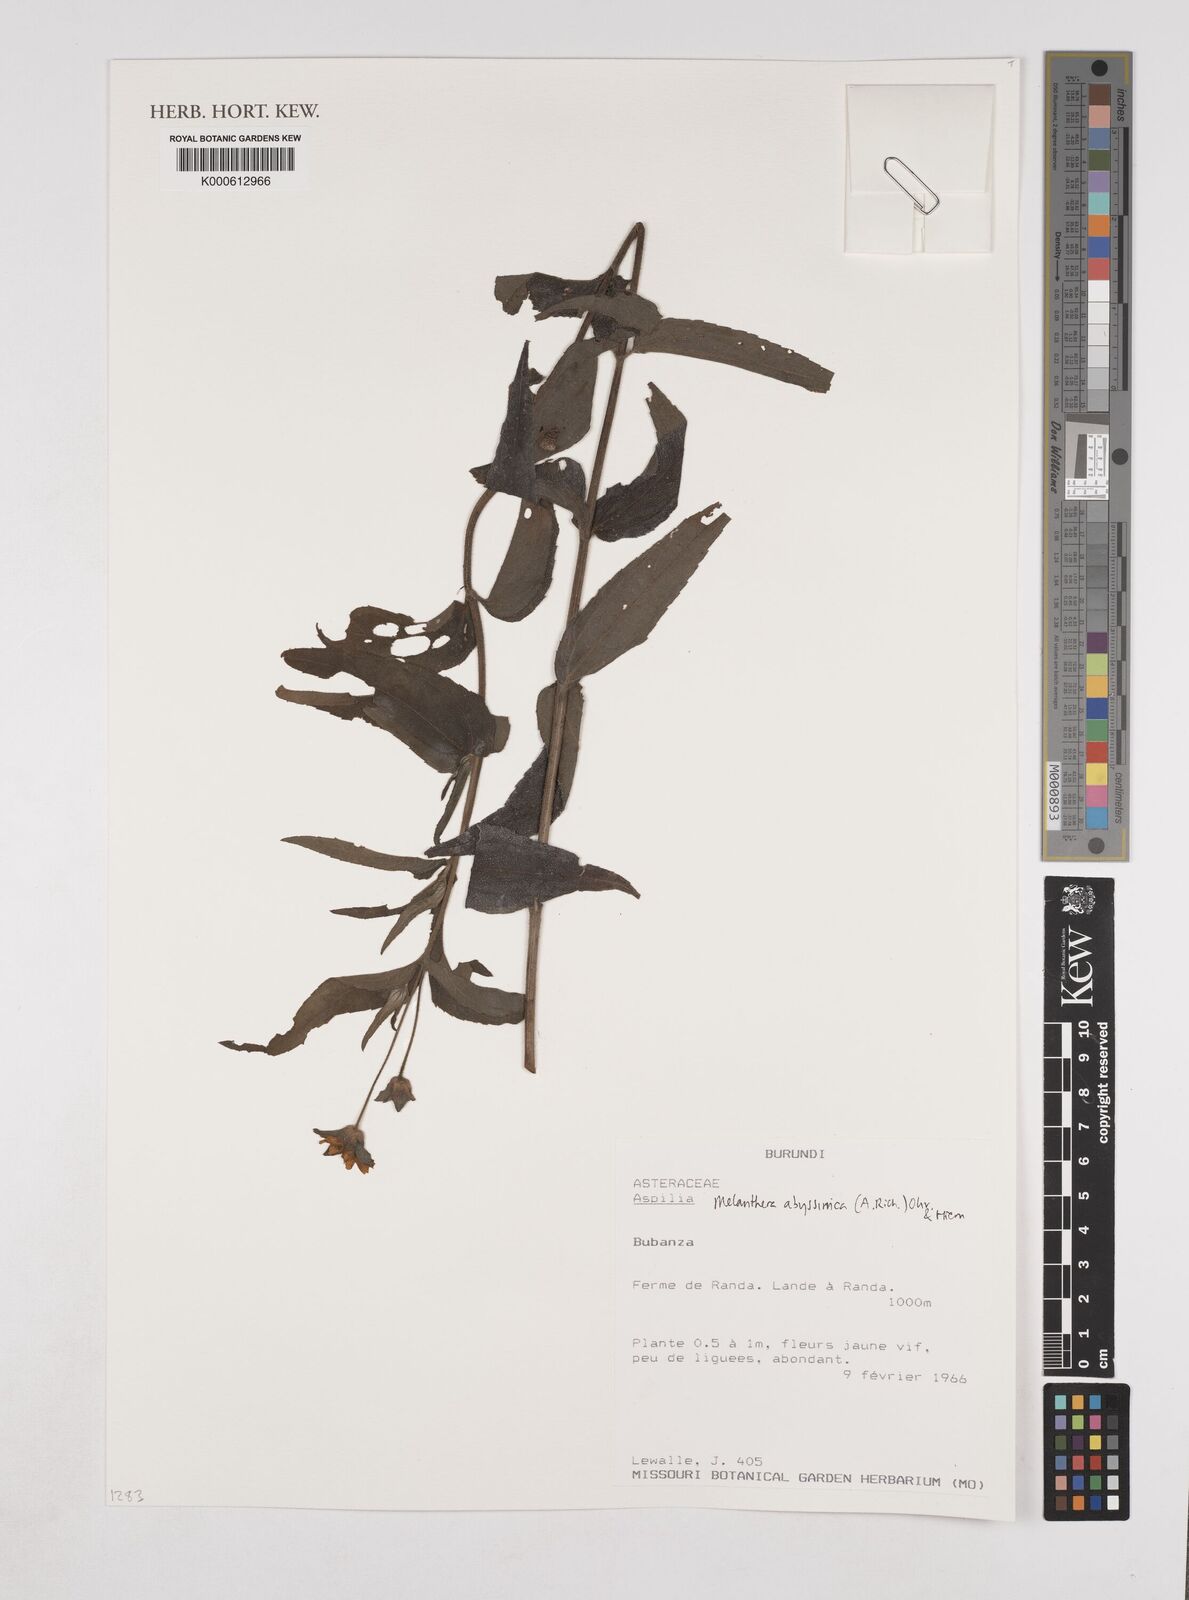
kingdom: Plantae
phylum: Tracheophyta
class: Magnoliopsida
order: Asterales
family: Asteraceae
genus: Melanthera
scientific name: Melanthera
